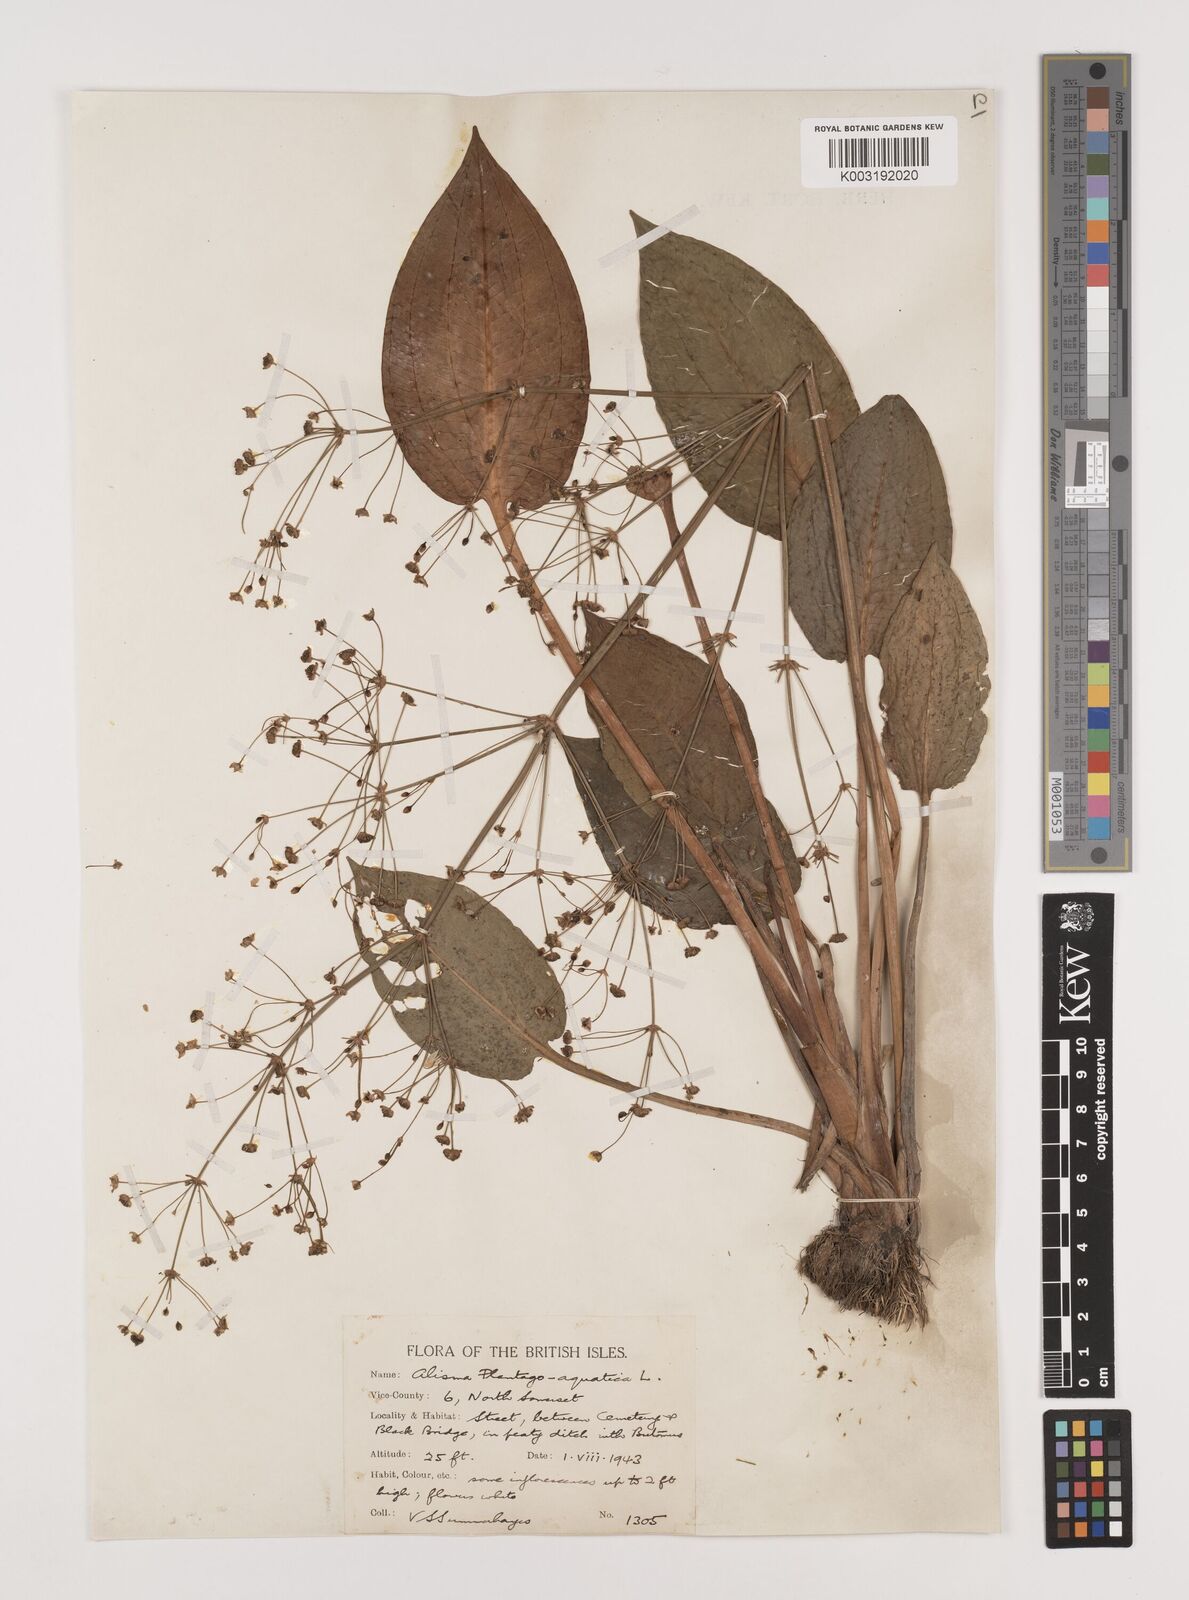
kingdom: Plantae
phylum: Tracheophyta
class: Liliopsida
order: Alismatales
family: Alismataceae
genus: Alisma
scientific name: Alisma plantago-aquatica
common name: Water-plantain
